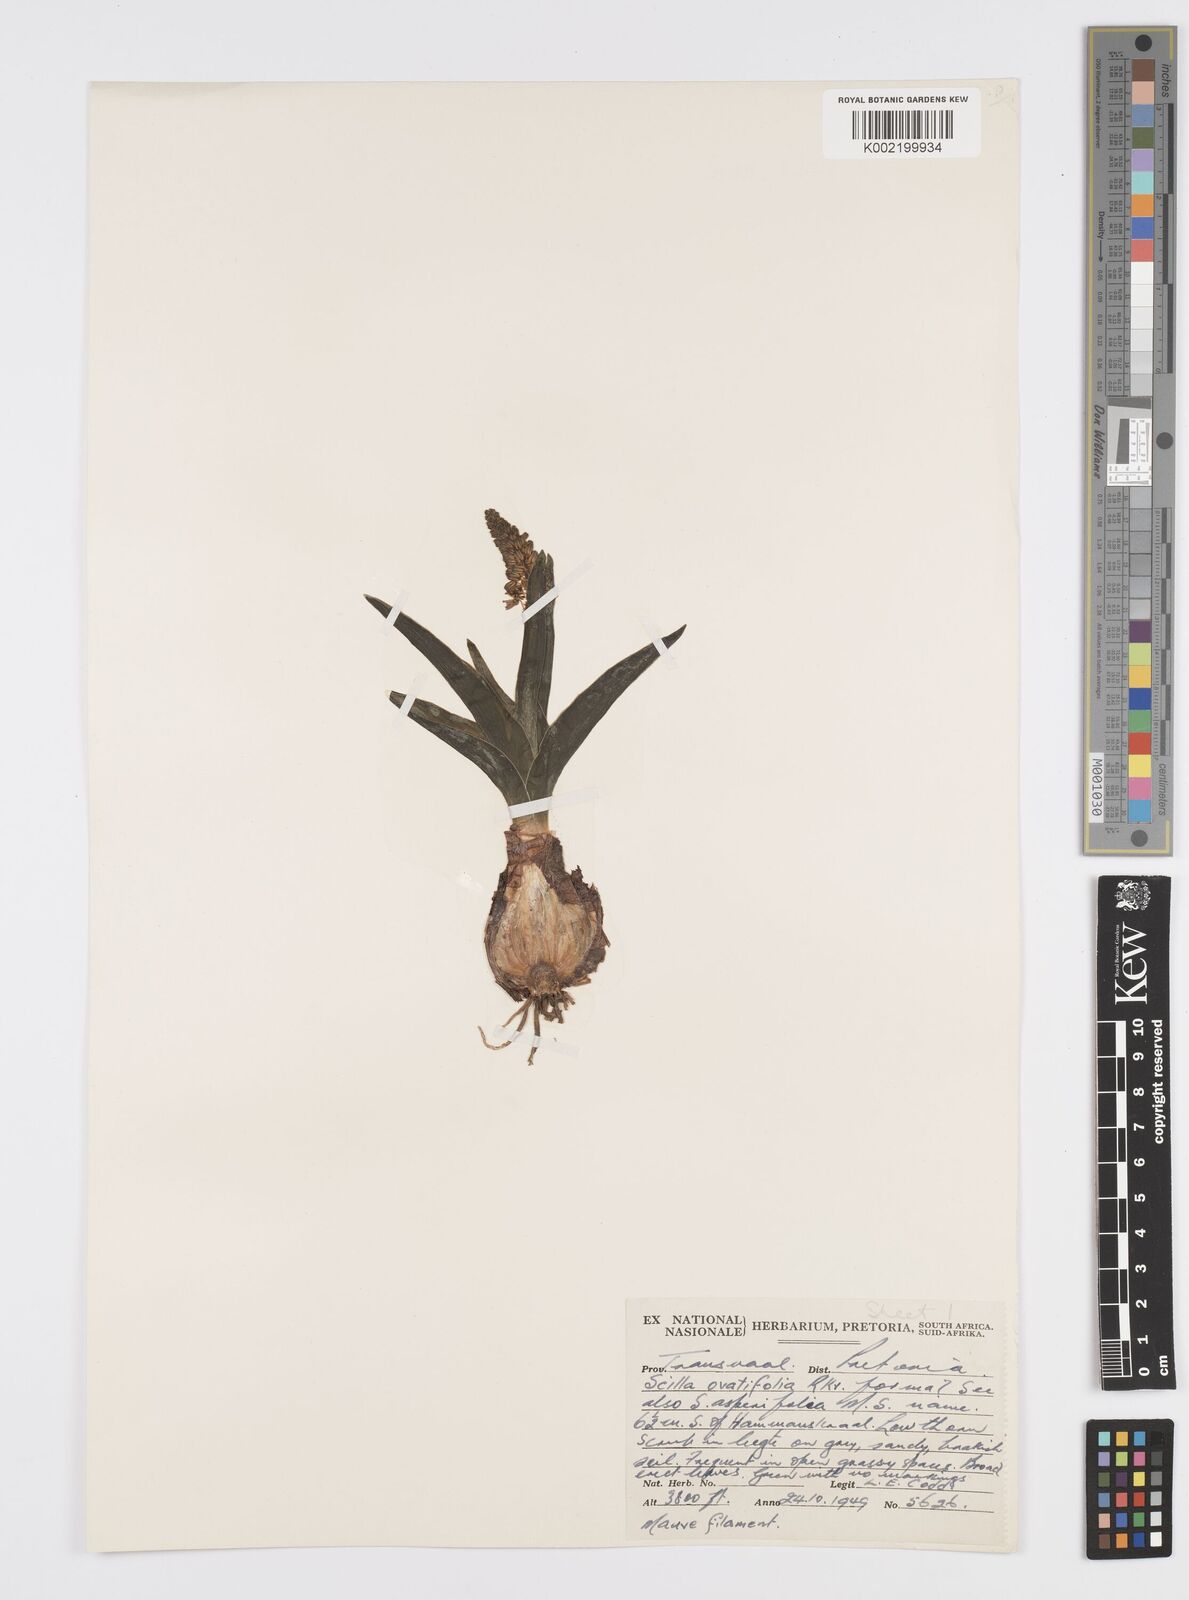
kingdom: Plantae
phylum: Tracheophyta
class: Liliopsida
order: Asparagales
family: Asparagaceae
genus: Ledebouria
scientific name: Ledebouria revoluta
